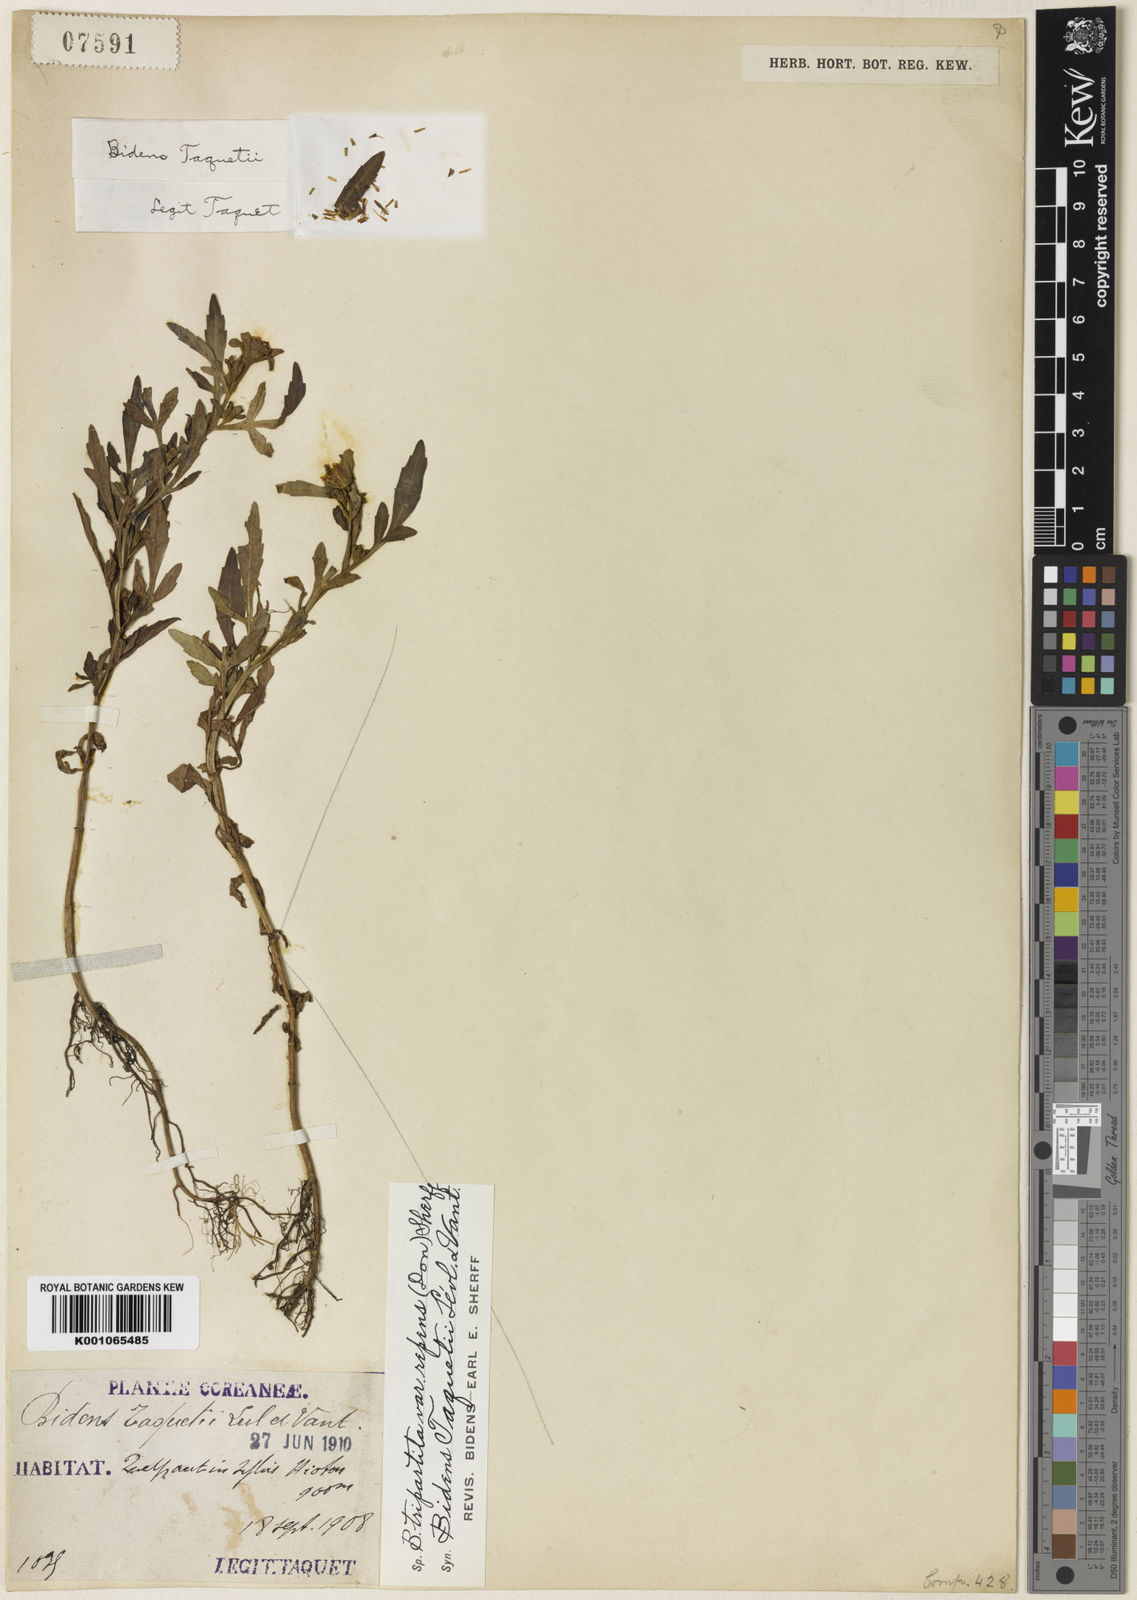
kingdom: Plantae
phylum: Tracheophyta
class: Magnoliopsida
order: Asterales
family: Asteraceae
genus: Bidens
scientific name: Bidens tripartita
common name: Trifid bur-marigold
